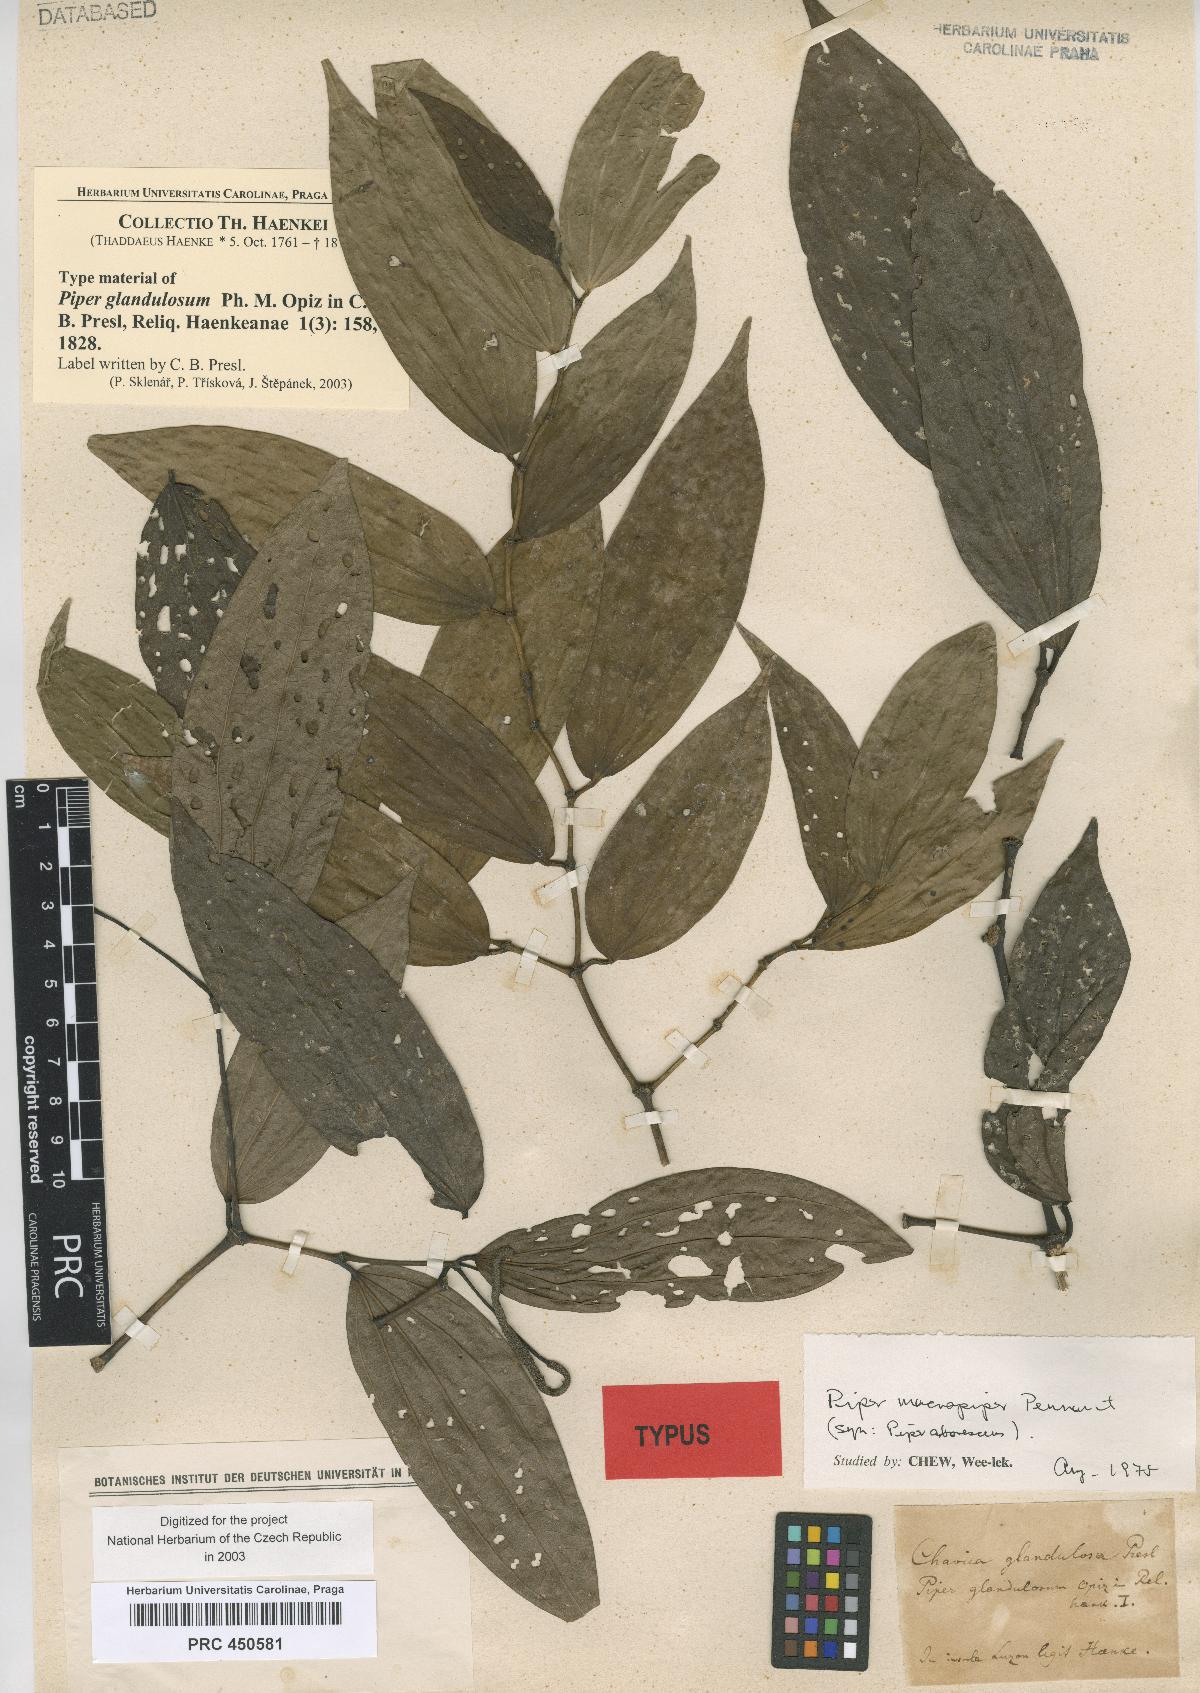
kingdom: Plantae
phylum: Tracheophyta
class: Magnoliopsida
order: Piperales
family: Piperaceae
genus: Piper
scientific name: Piper macropiper
